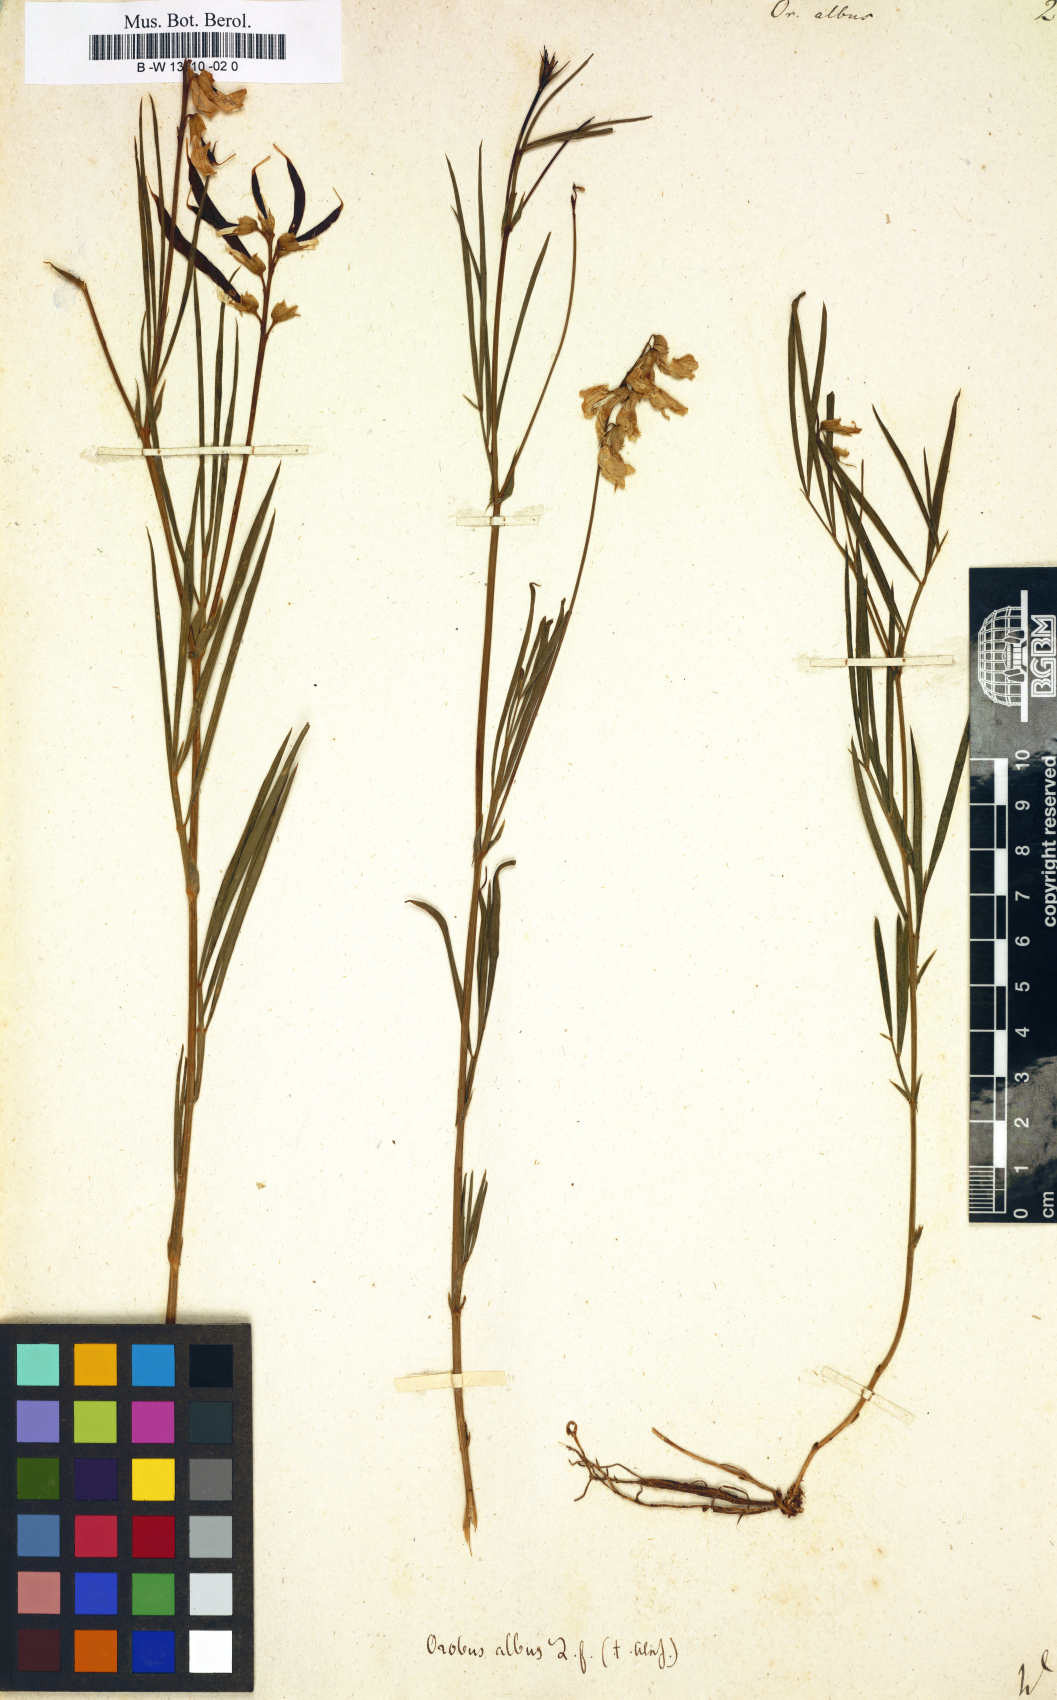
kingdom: Plantae
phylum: Tracheophyta
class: Magnoliopsida
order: Fabales
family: Fabaceae
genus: Lathyrus
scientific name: Lathyrus pannonicus
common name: Pea
